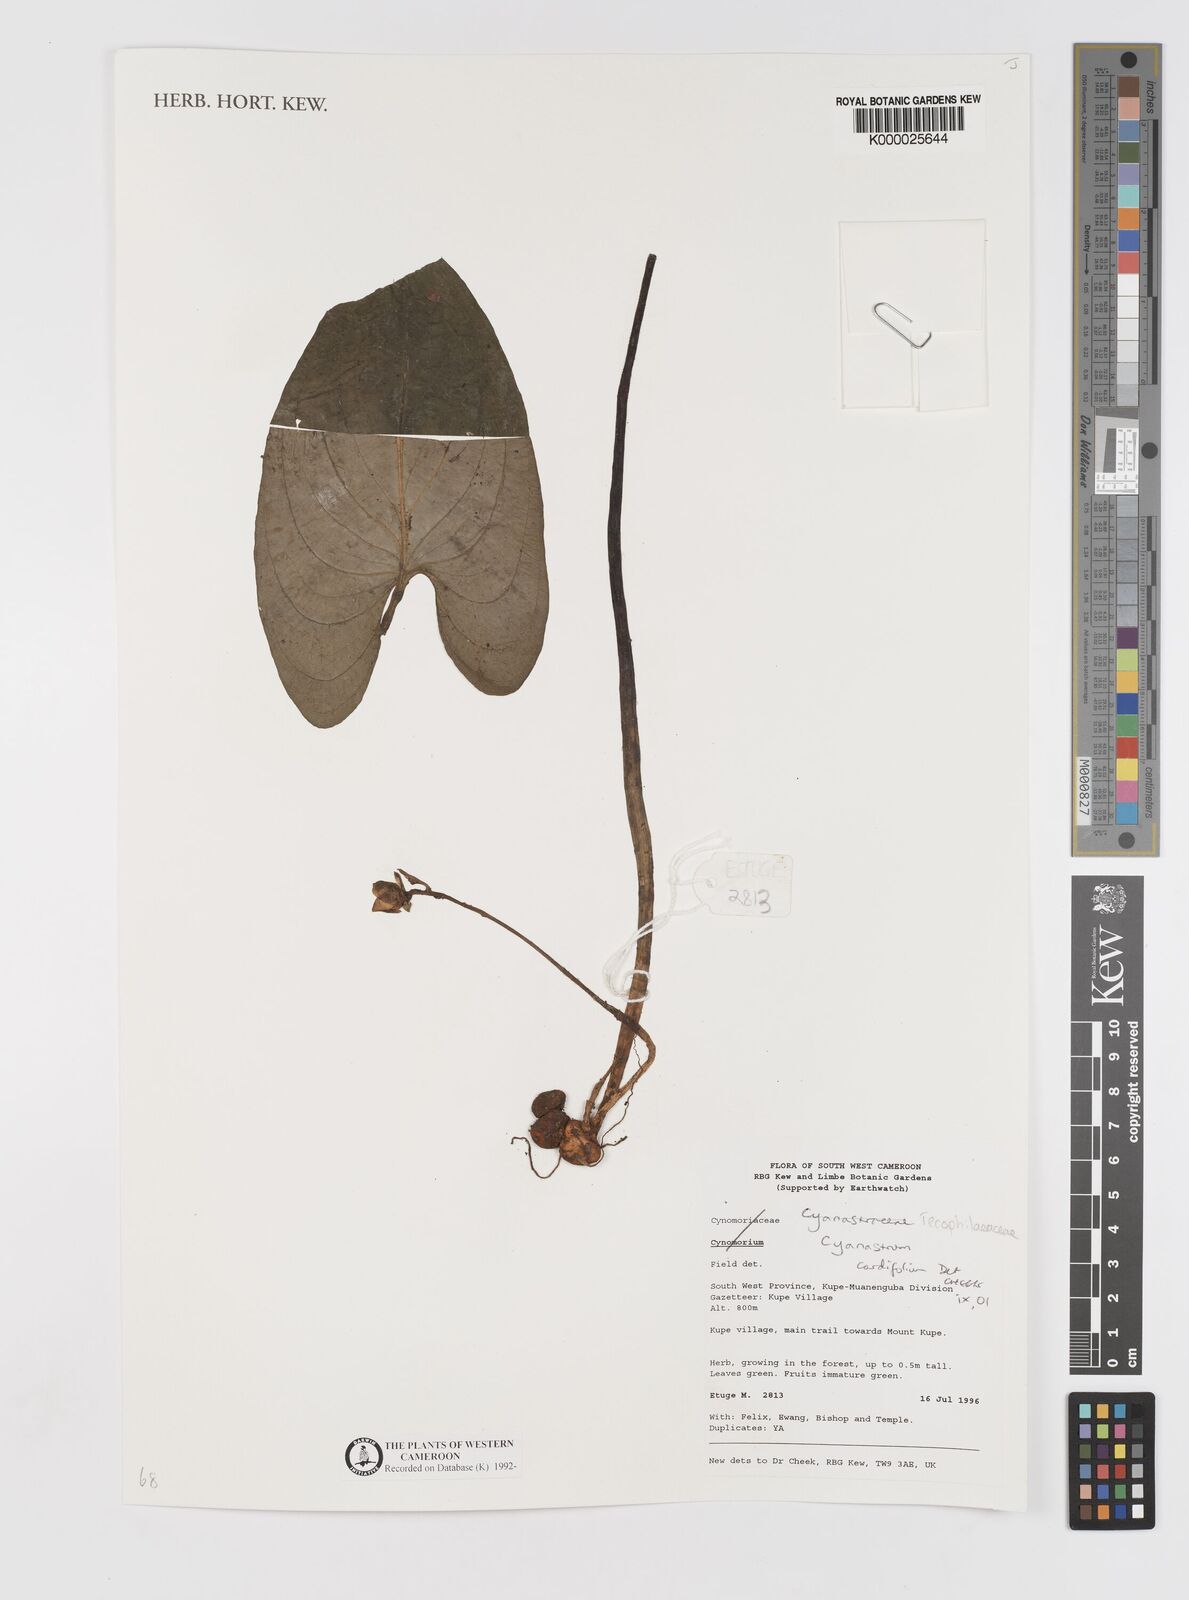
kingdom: Plantae
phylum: Tracheophyta
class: Liliopsida
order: Asparagales
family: Tecophilaeaceae
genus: Cyanastrum
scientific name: Cyanastrum cordifolium
